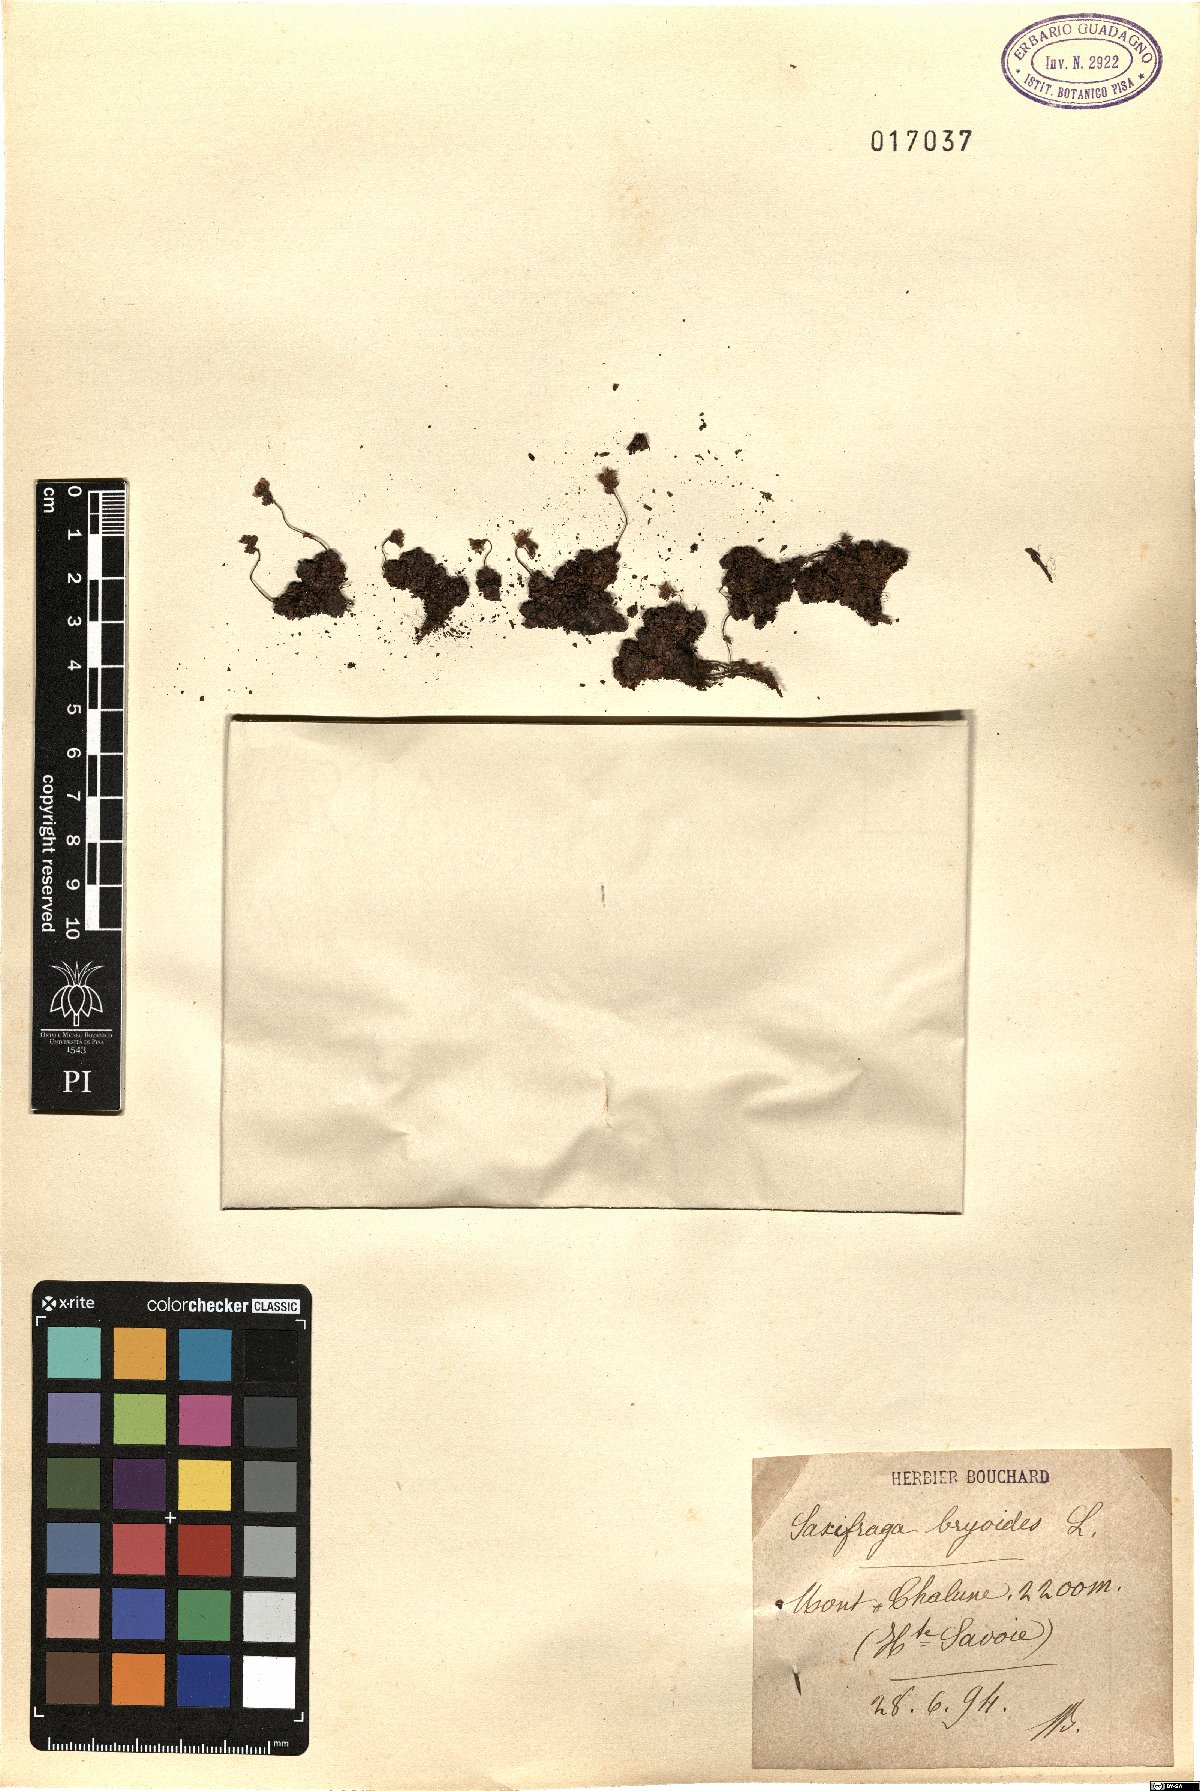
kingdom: Plantae
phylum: Tracheophyta
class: Magnoliopsida
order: Saxifragales
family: Saxifragaceae
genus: Saxifraga
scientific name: Saxifraga bryoides
